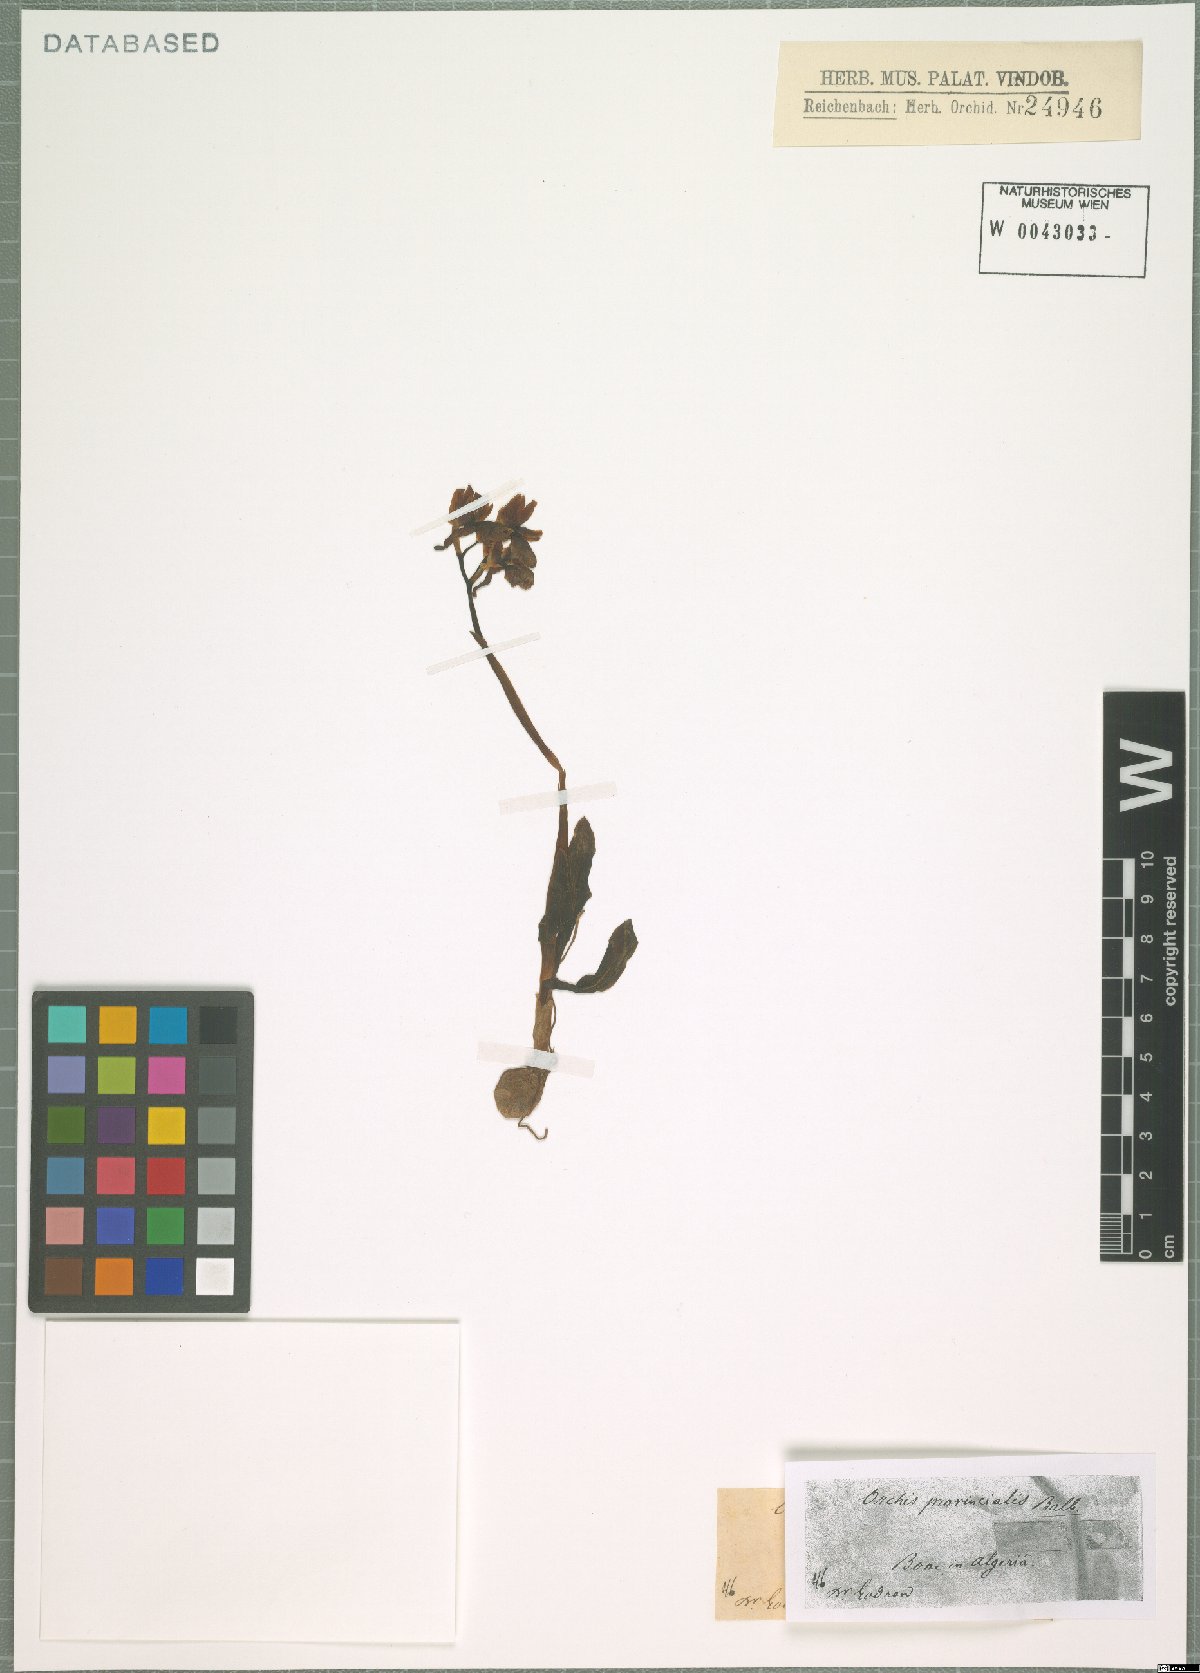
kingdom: Plantae
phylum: Tracheophyta
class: Liliopsida
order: Asparagales
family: Orchidaceae
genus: Orchis
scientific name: Orchis provincialis
